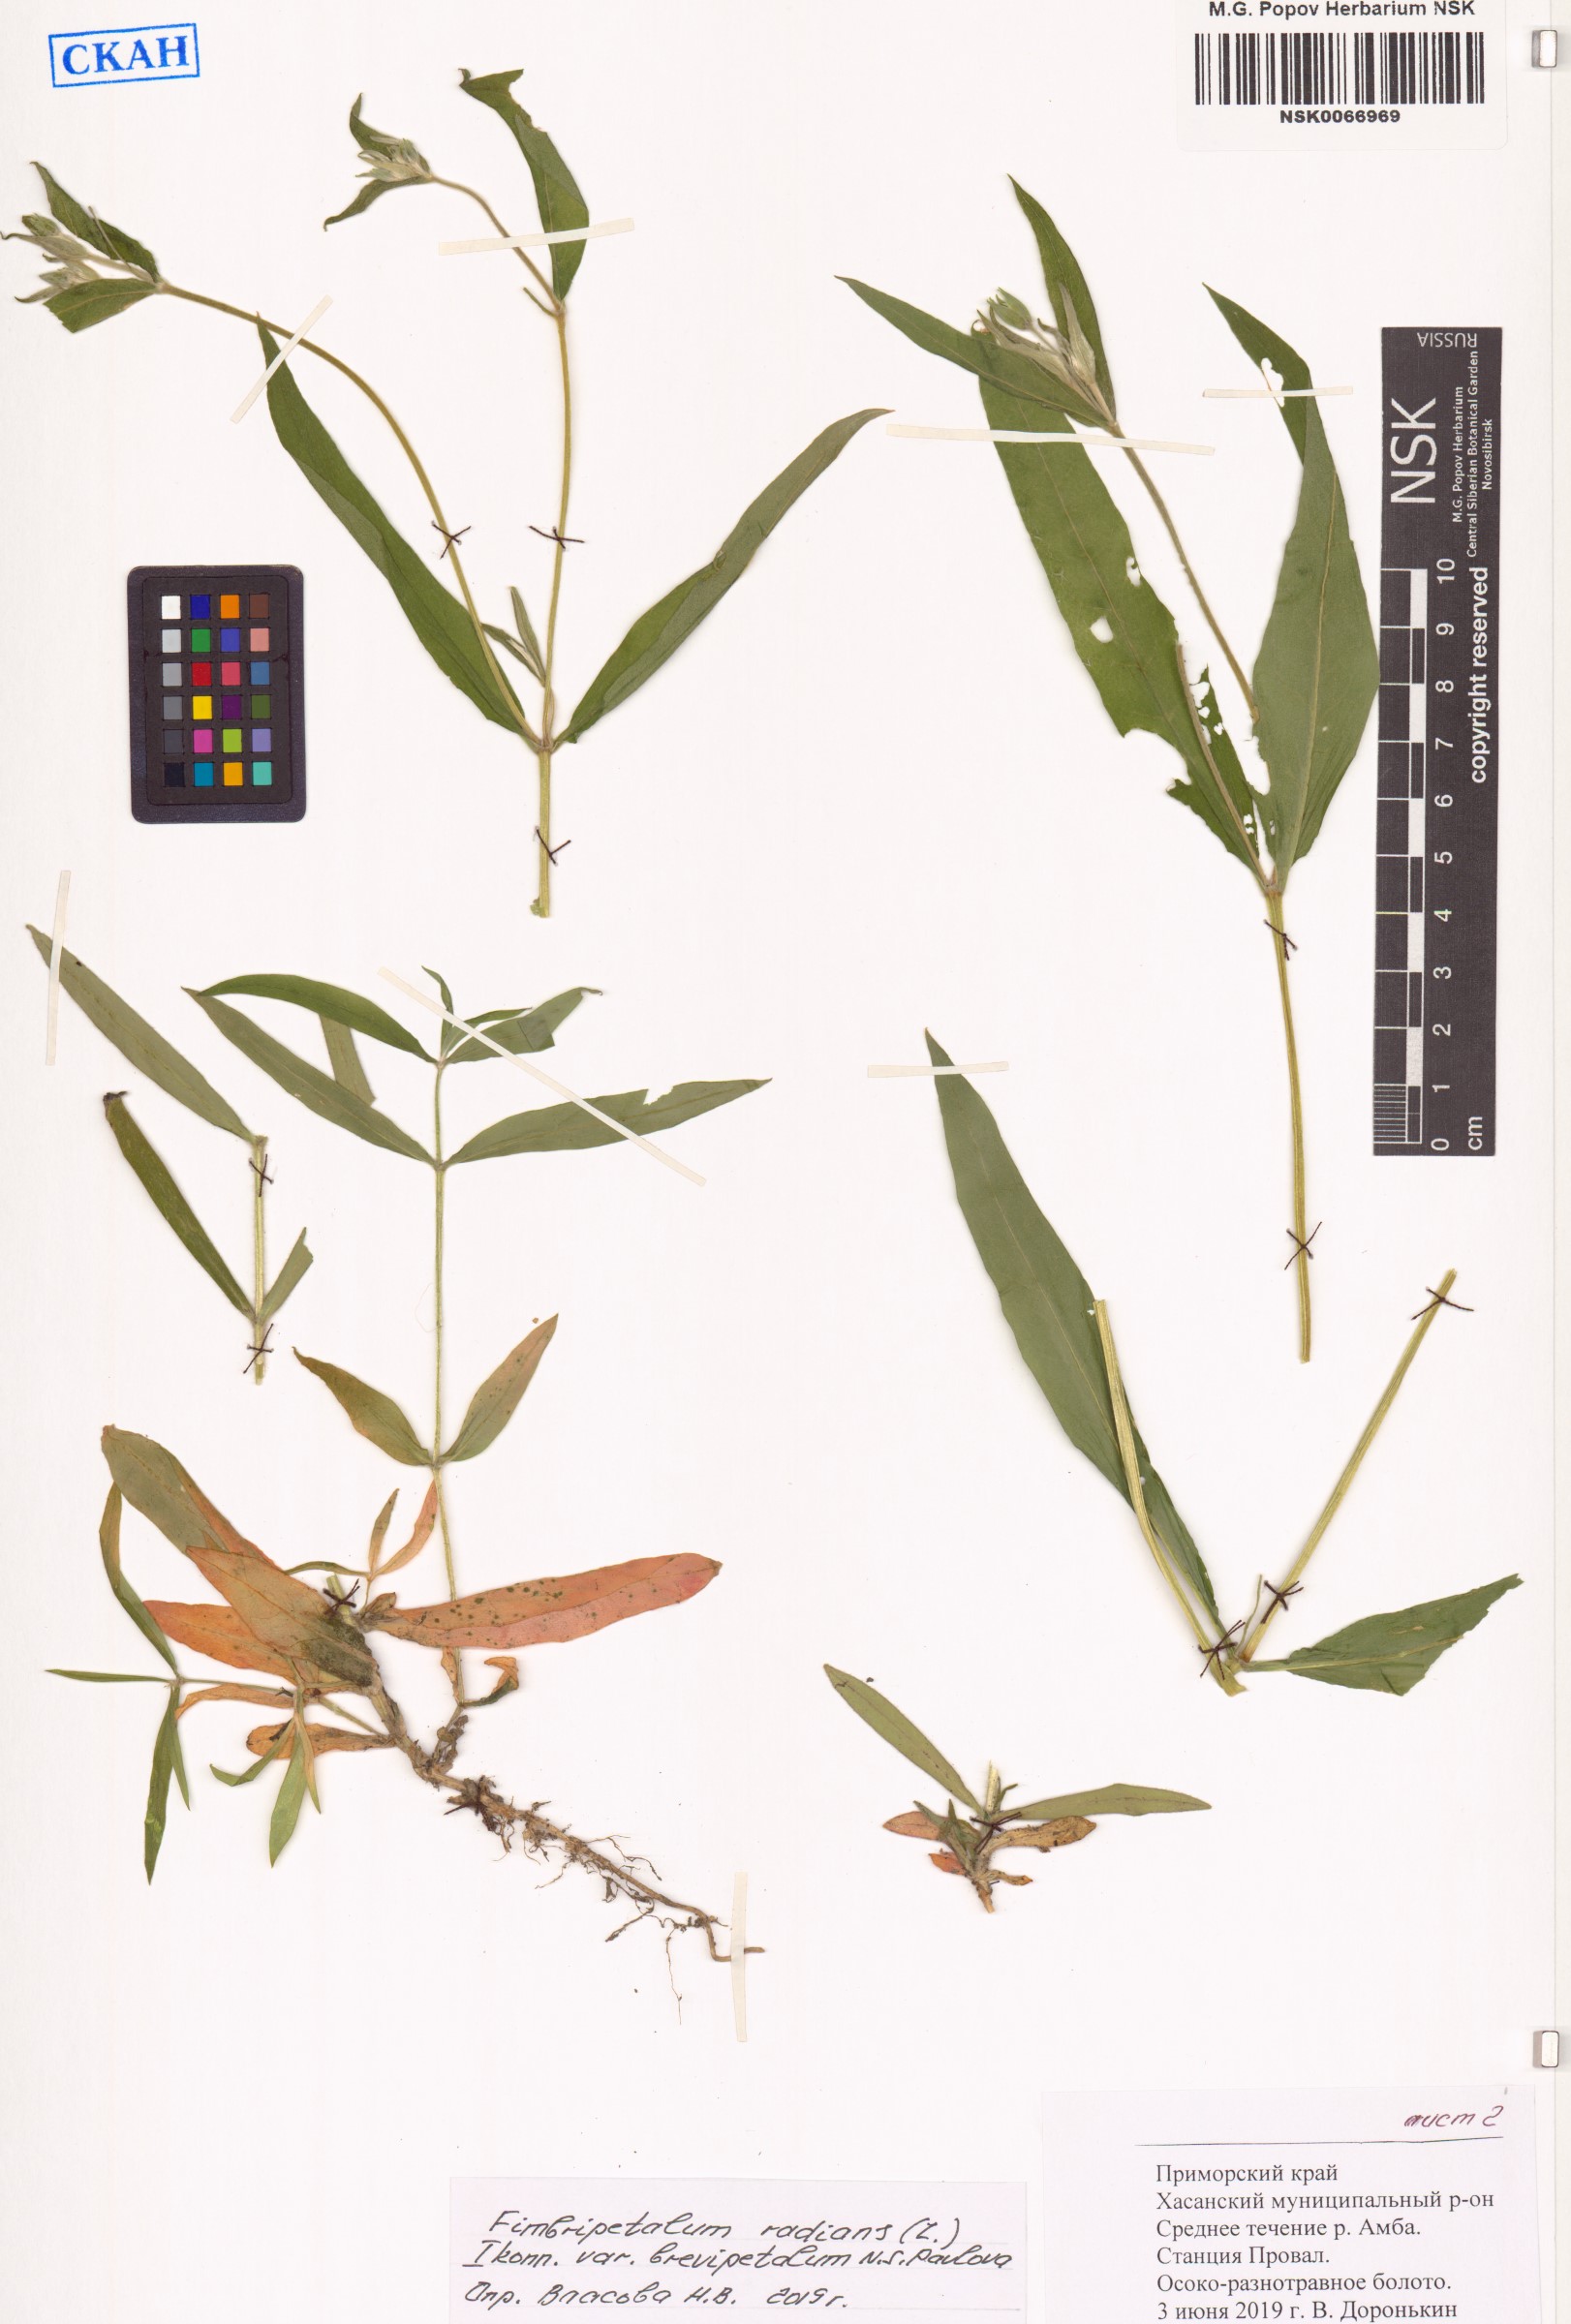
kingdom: Plantae
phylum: Tracheophyta
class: Magnoliopsida
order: Caryophyllales
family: Caryophyllaceae
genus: Stellaria
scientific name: Stellaria radians
